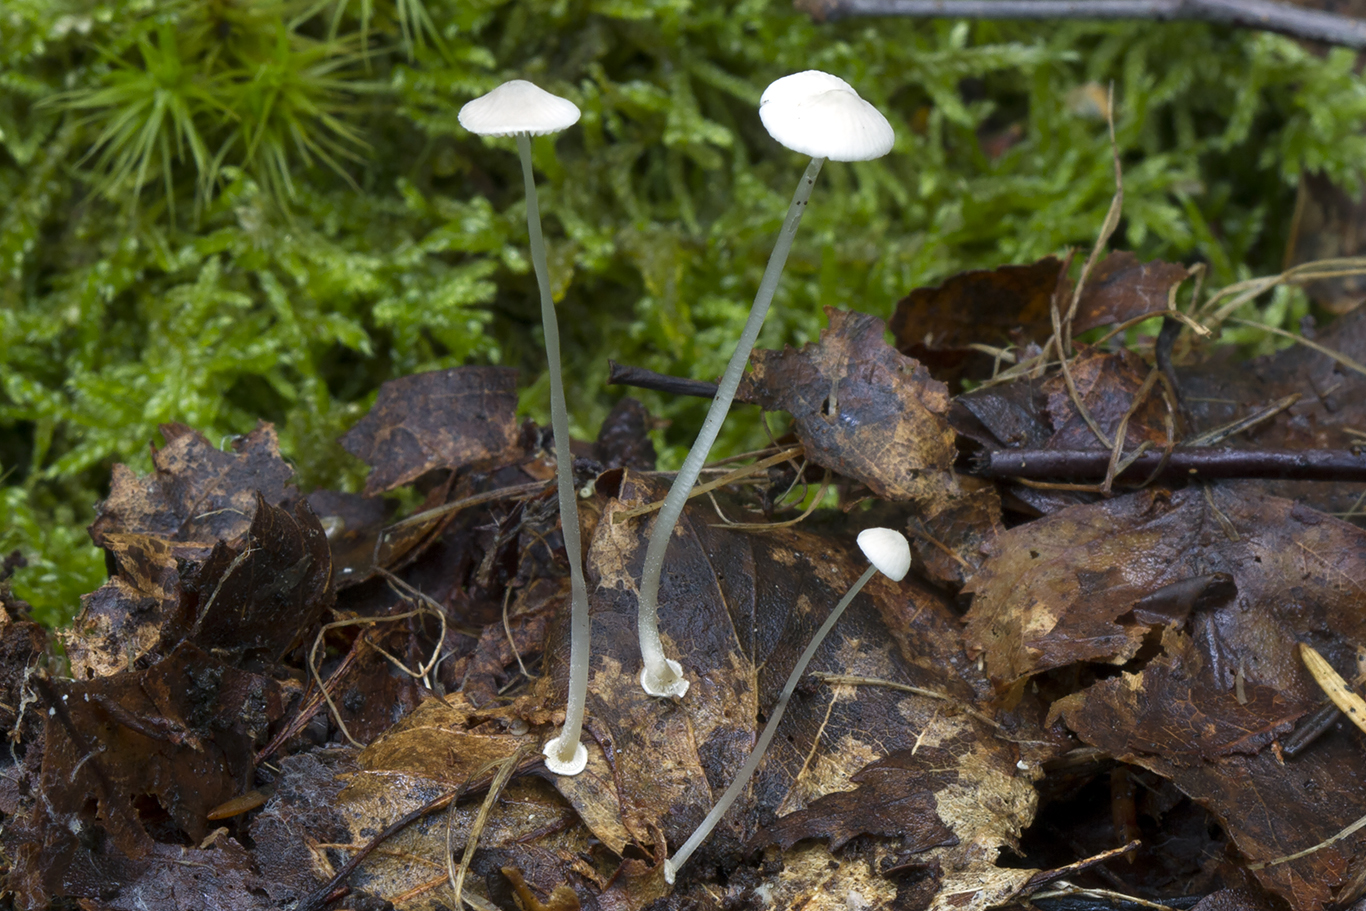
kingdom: Fungi
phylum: Basidiomycota
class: Agaricomycetes
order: Agaricales
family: Mycenaceae
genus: Mycena
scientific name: Mycena stylobates
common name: fureskivet huesvamp
